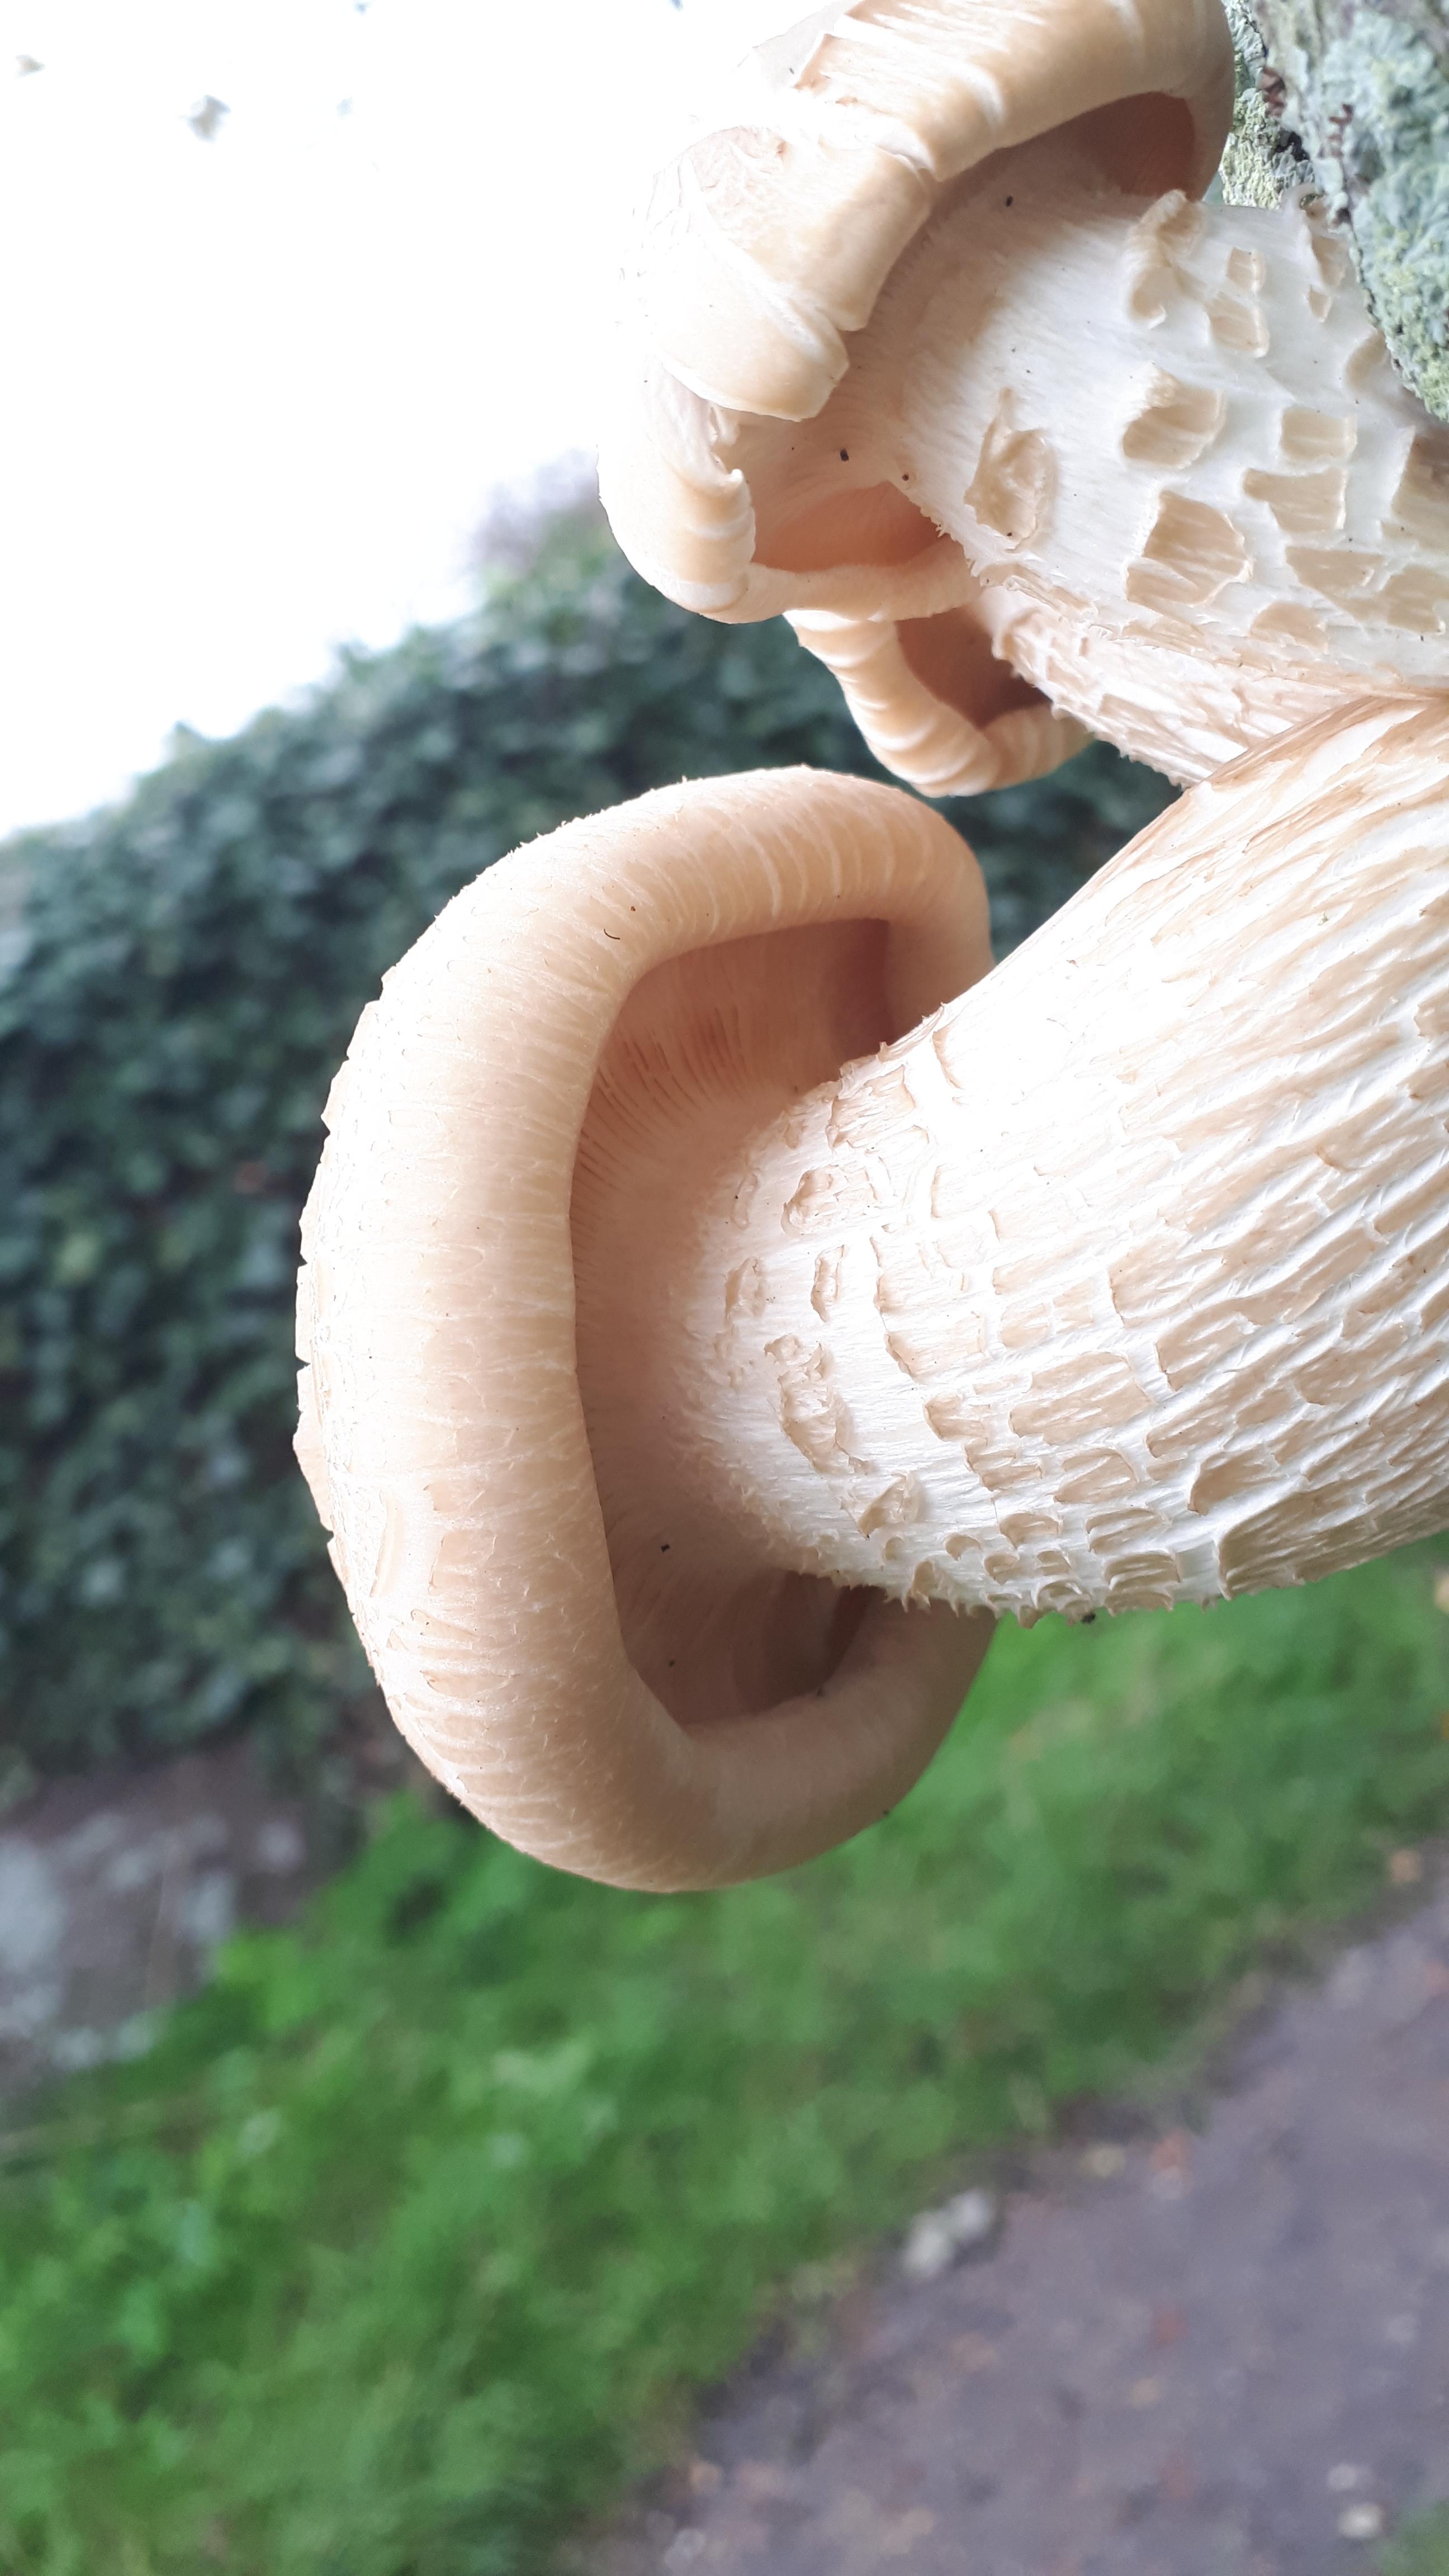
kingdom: Fungi
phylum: Basidiomycota
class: Agaricomycetes
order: Agaricales
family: Lyophyllaceae
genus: Hypsizygus
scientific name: Hypsizygus ulmarius
